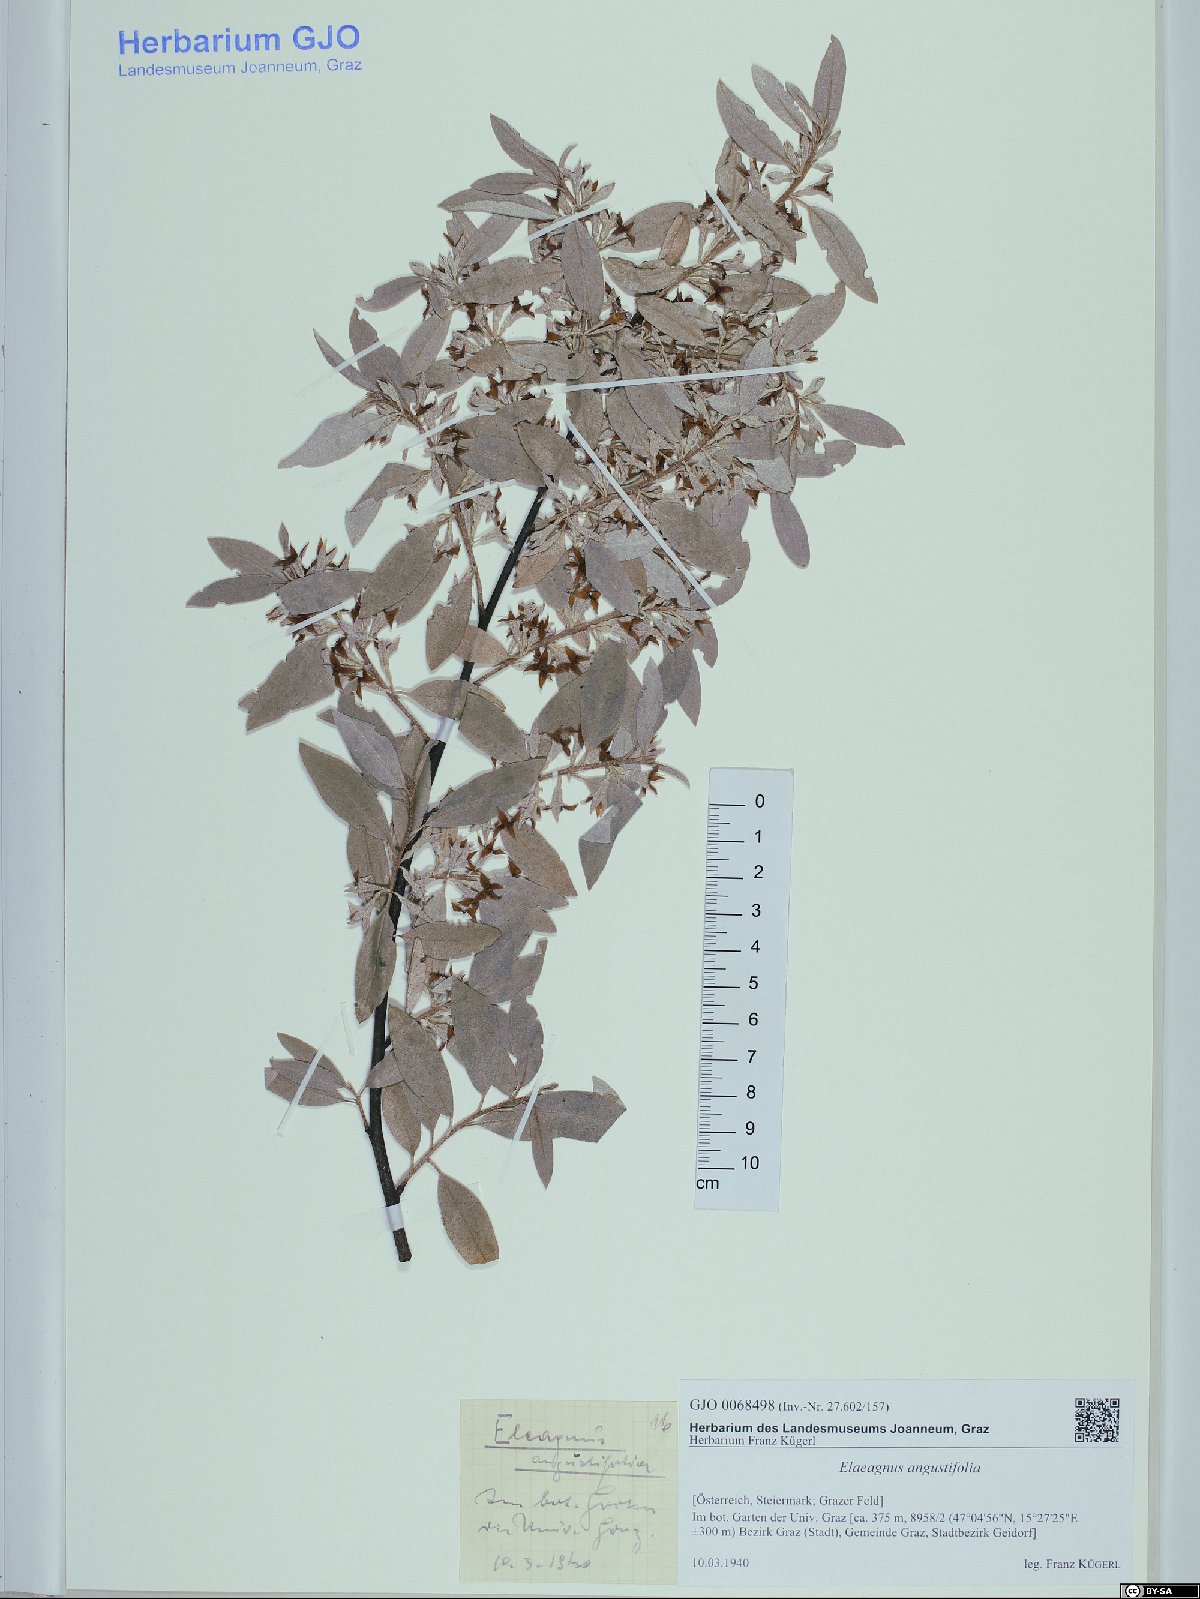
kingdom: Plantae
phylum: Tracheophyta
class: Magnoliopsida
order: Rosales
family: Elaeagnaceae
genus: Elaeagnus
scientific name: Elaeagnus angustifolia
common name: Russian olive
